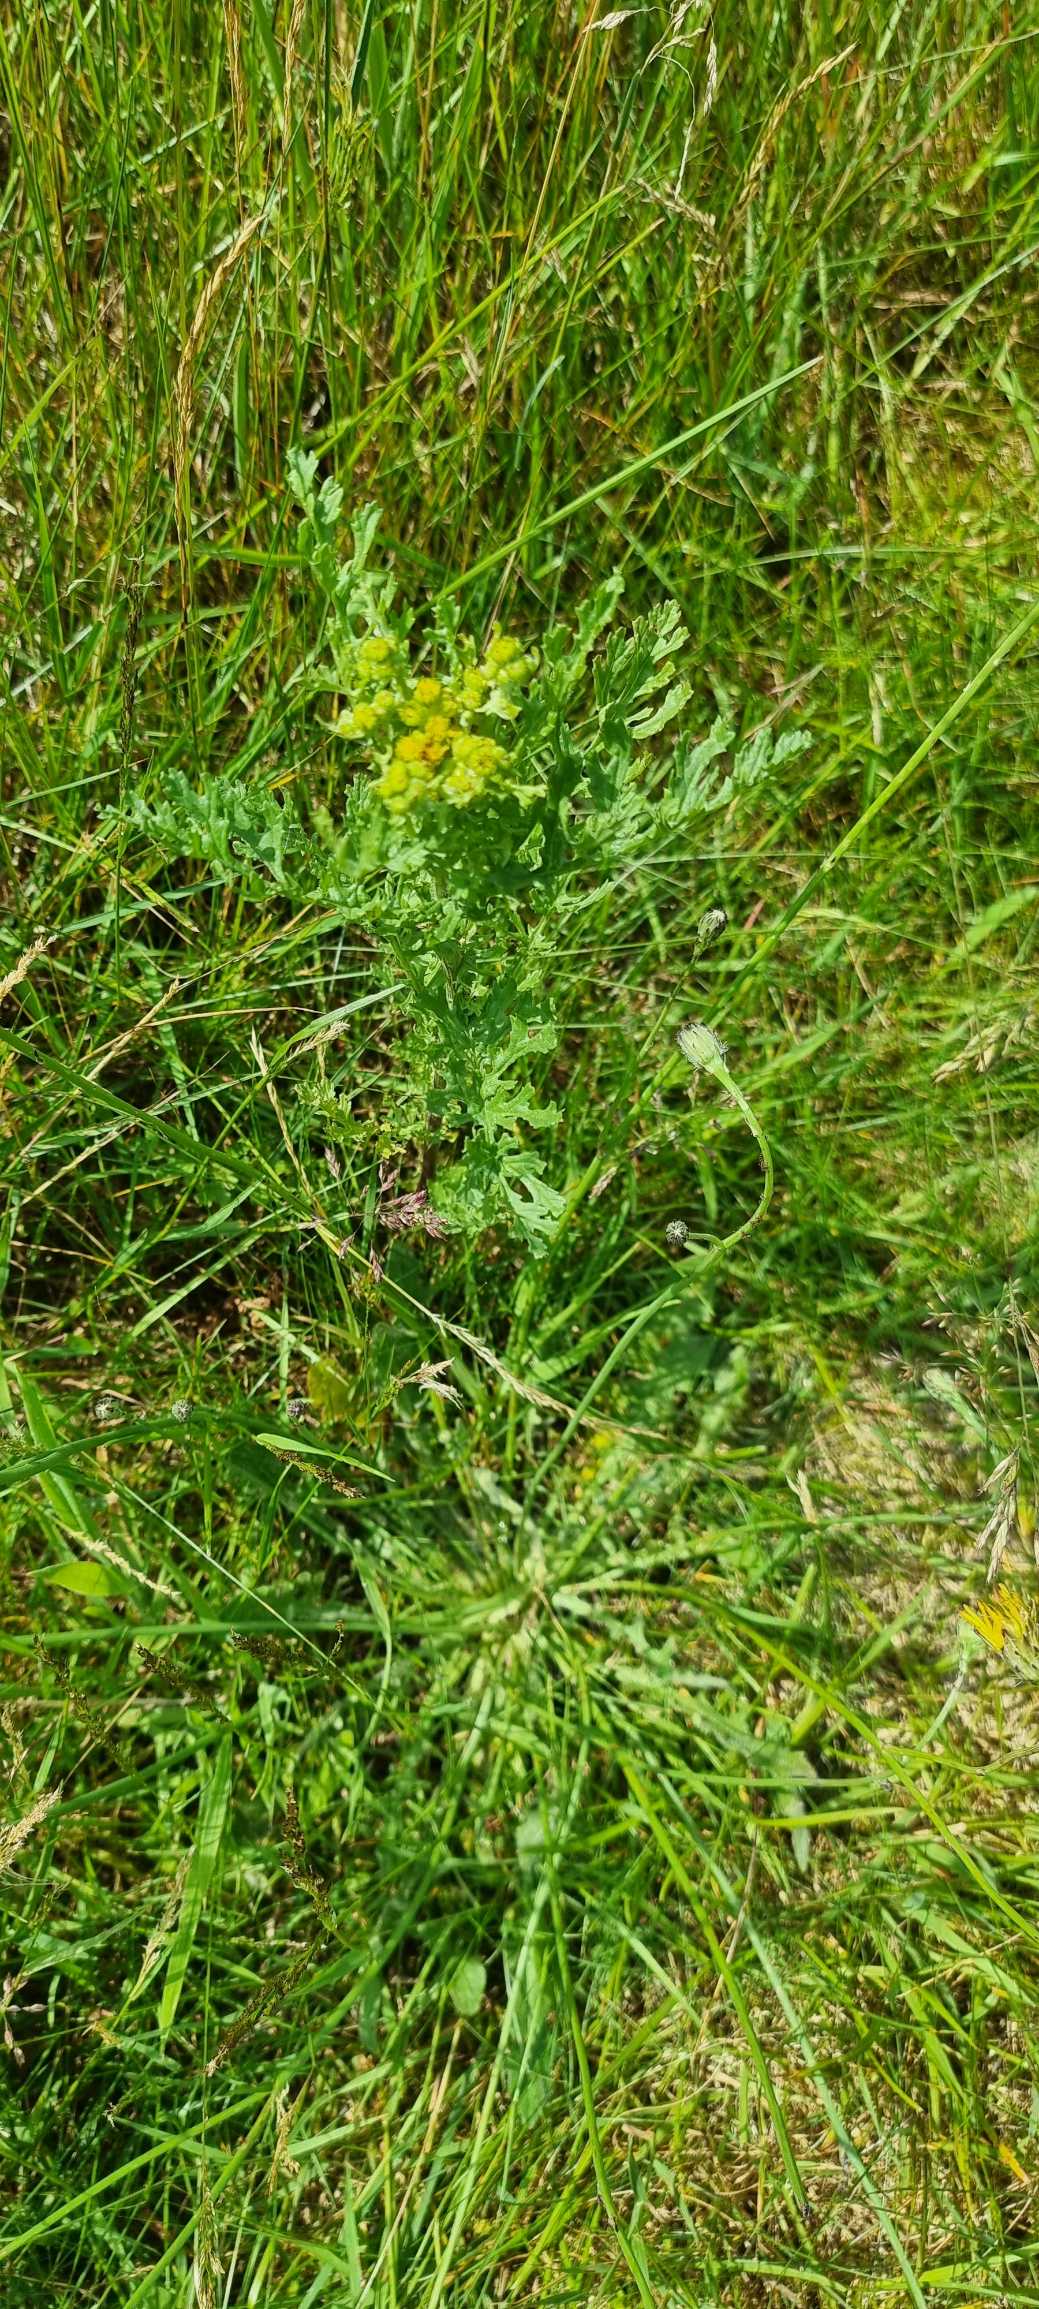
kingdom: Plantae
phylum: Tracheophyta
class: Magnoliopsida
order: Asterales
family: Asteraceae
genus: Jacobaea
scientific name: Jacobaea vulgaris
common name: Eng-brandbæger
